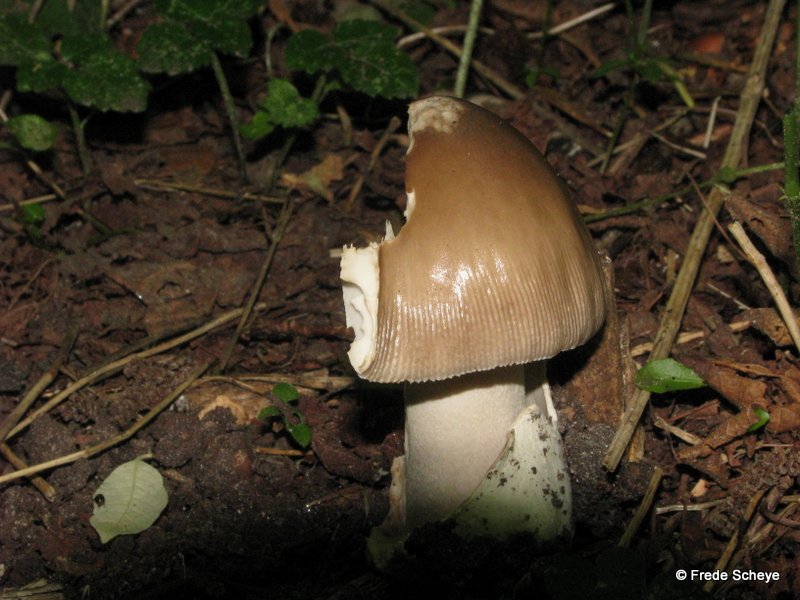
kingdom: Fungi
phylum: Basidiomycota
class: Agaricomycetes
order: Agaricales
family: Amanitaceae
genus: Amanita
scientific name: Amanita fulva
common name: brun kam-fluesvamp
